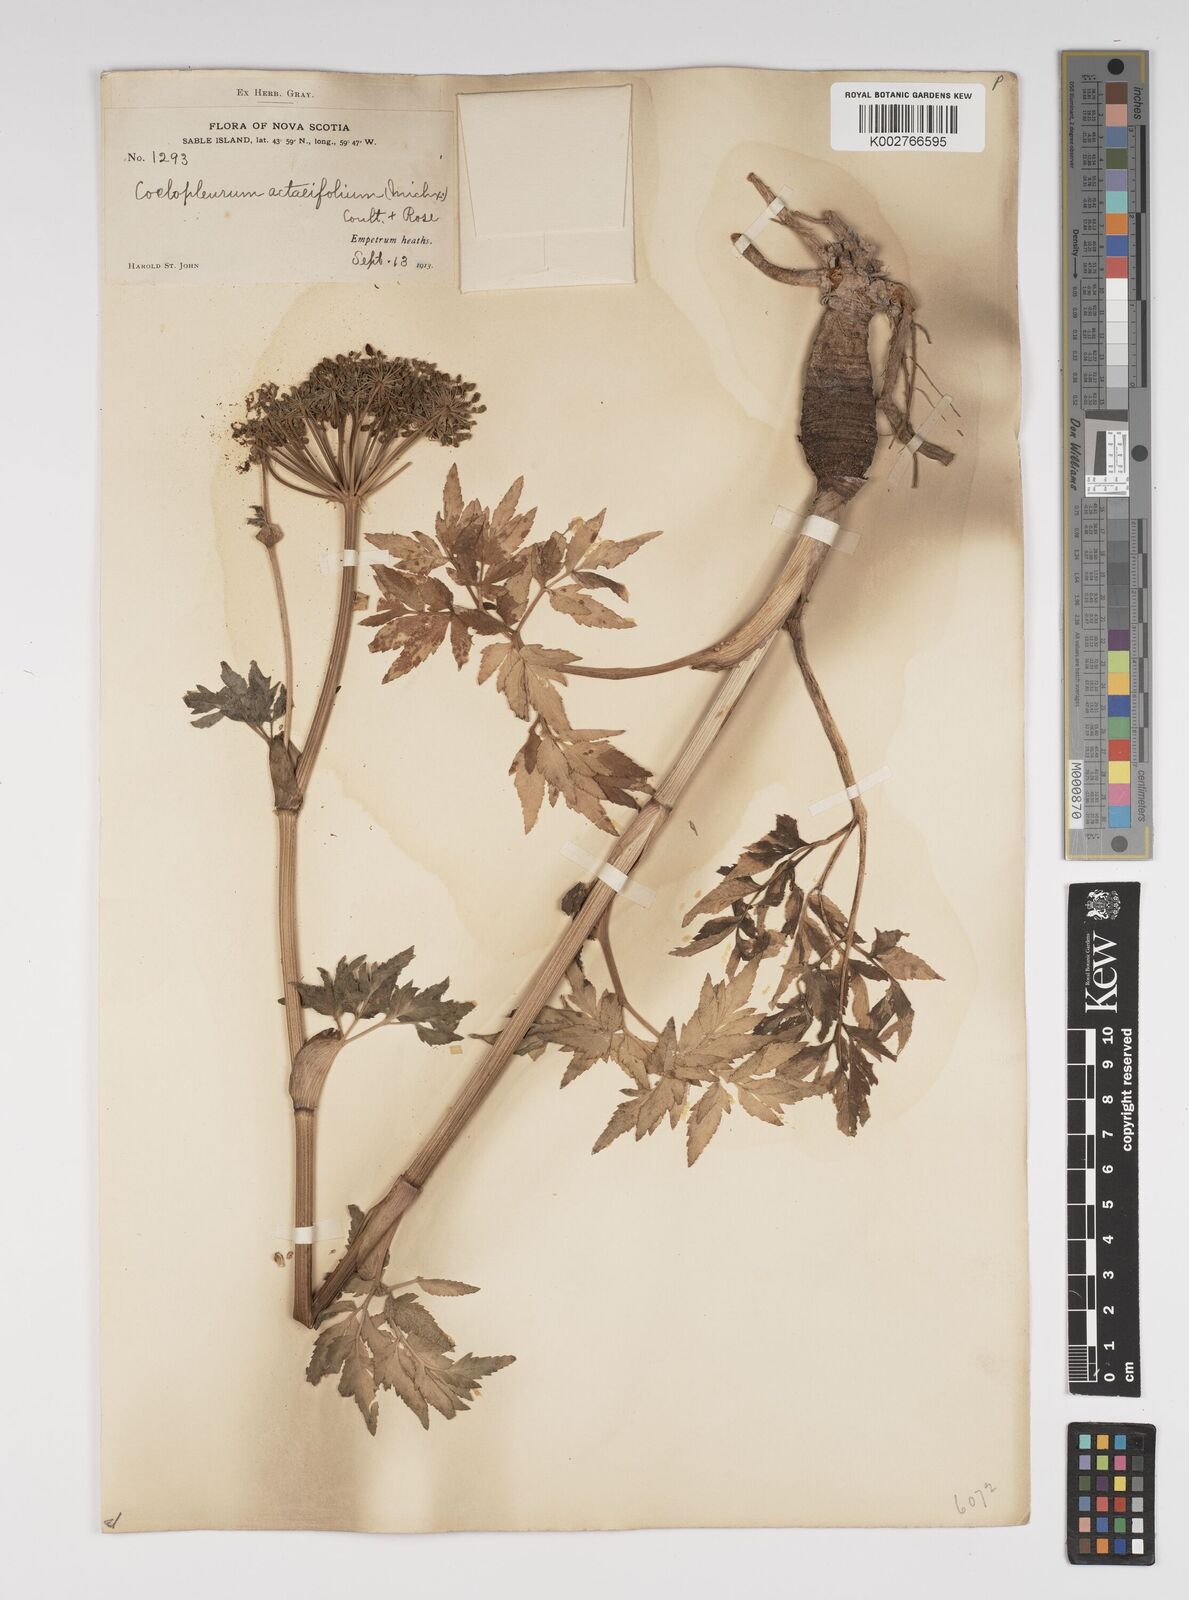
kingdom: Plantae
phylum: Tracheophyta
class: Magnoliopsida
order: Apiales
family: Apiaceae
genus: Angelica
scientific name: Angelica lucida
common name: Seabeach angelica
